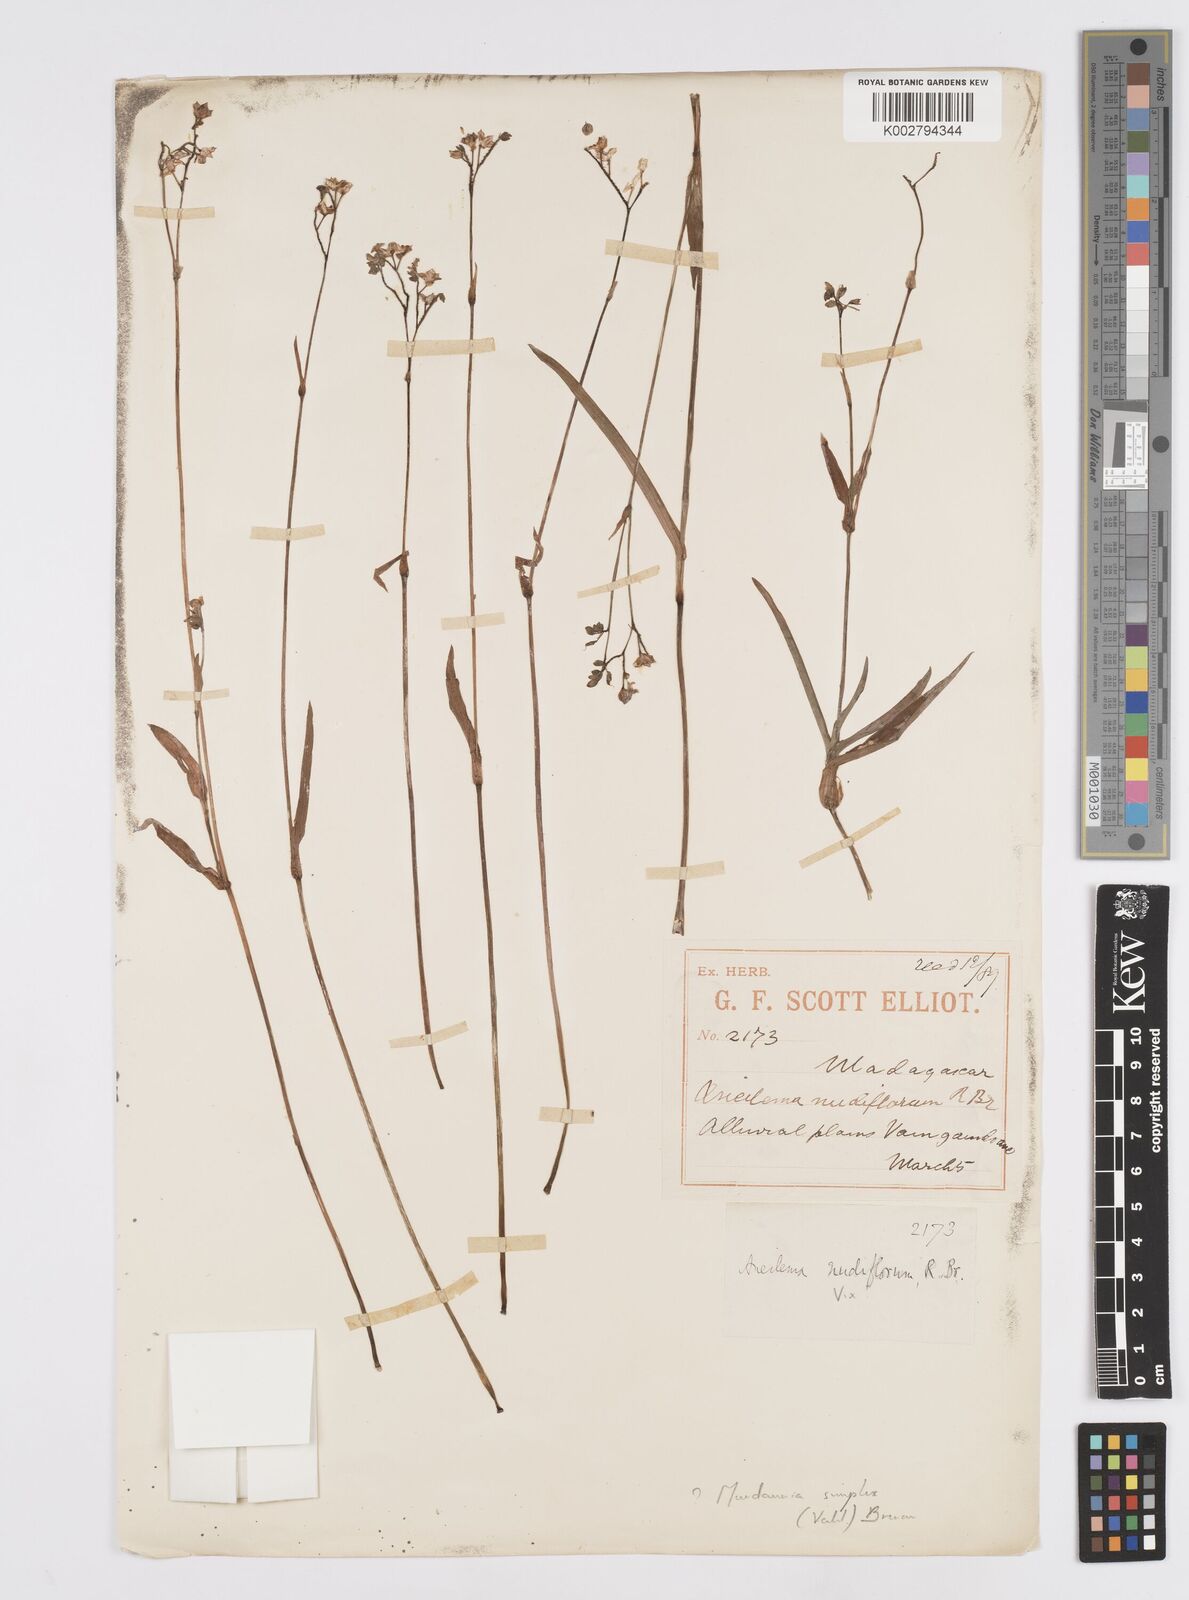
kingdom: Plantae
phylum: Tracheophyta
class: Liliopsida
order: Commelinales
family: Commelinaceae
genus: Murdannia
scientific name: Murdannia simplex
